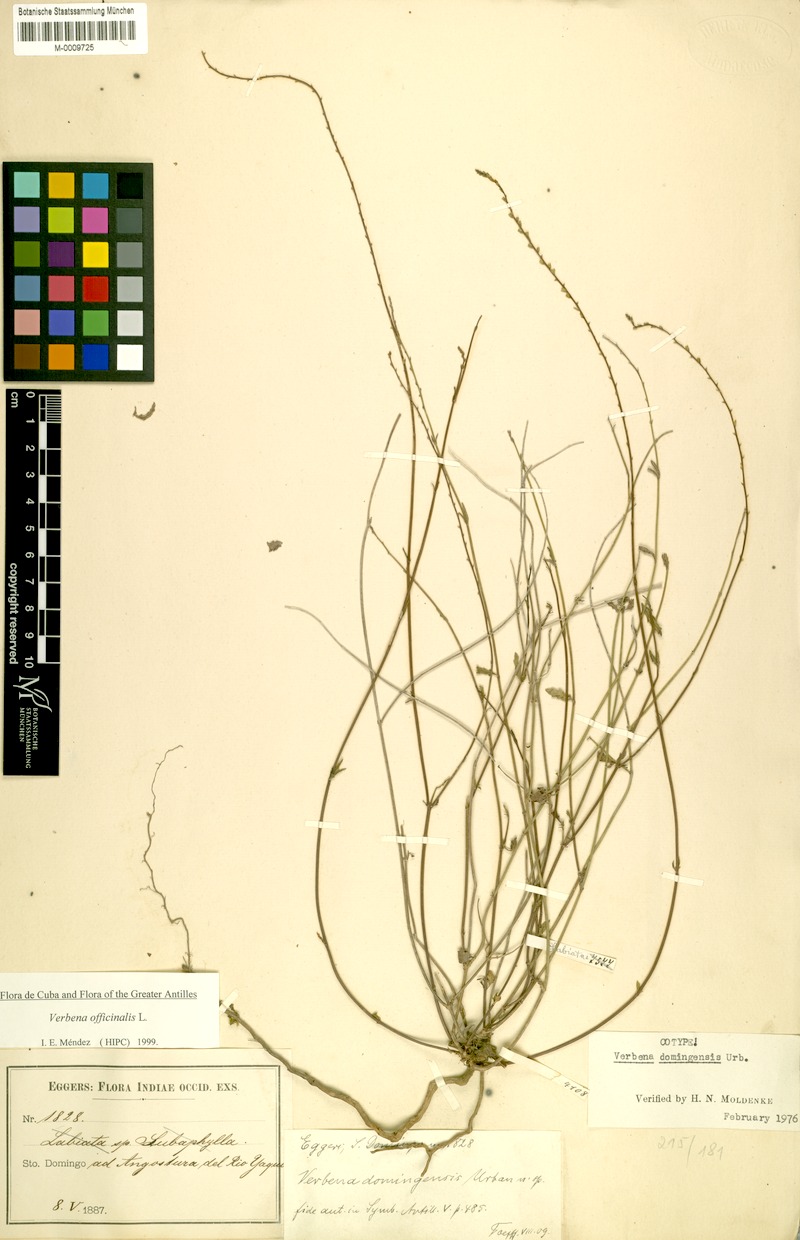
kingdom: Plantae
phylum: Tracheophyta
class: Magnoliopsida
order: Lamiales
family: Verbenaceae
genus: Verbena
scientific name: Verbena officinalis
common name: Vervain
